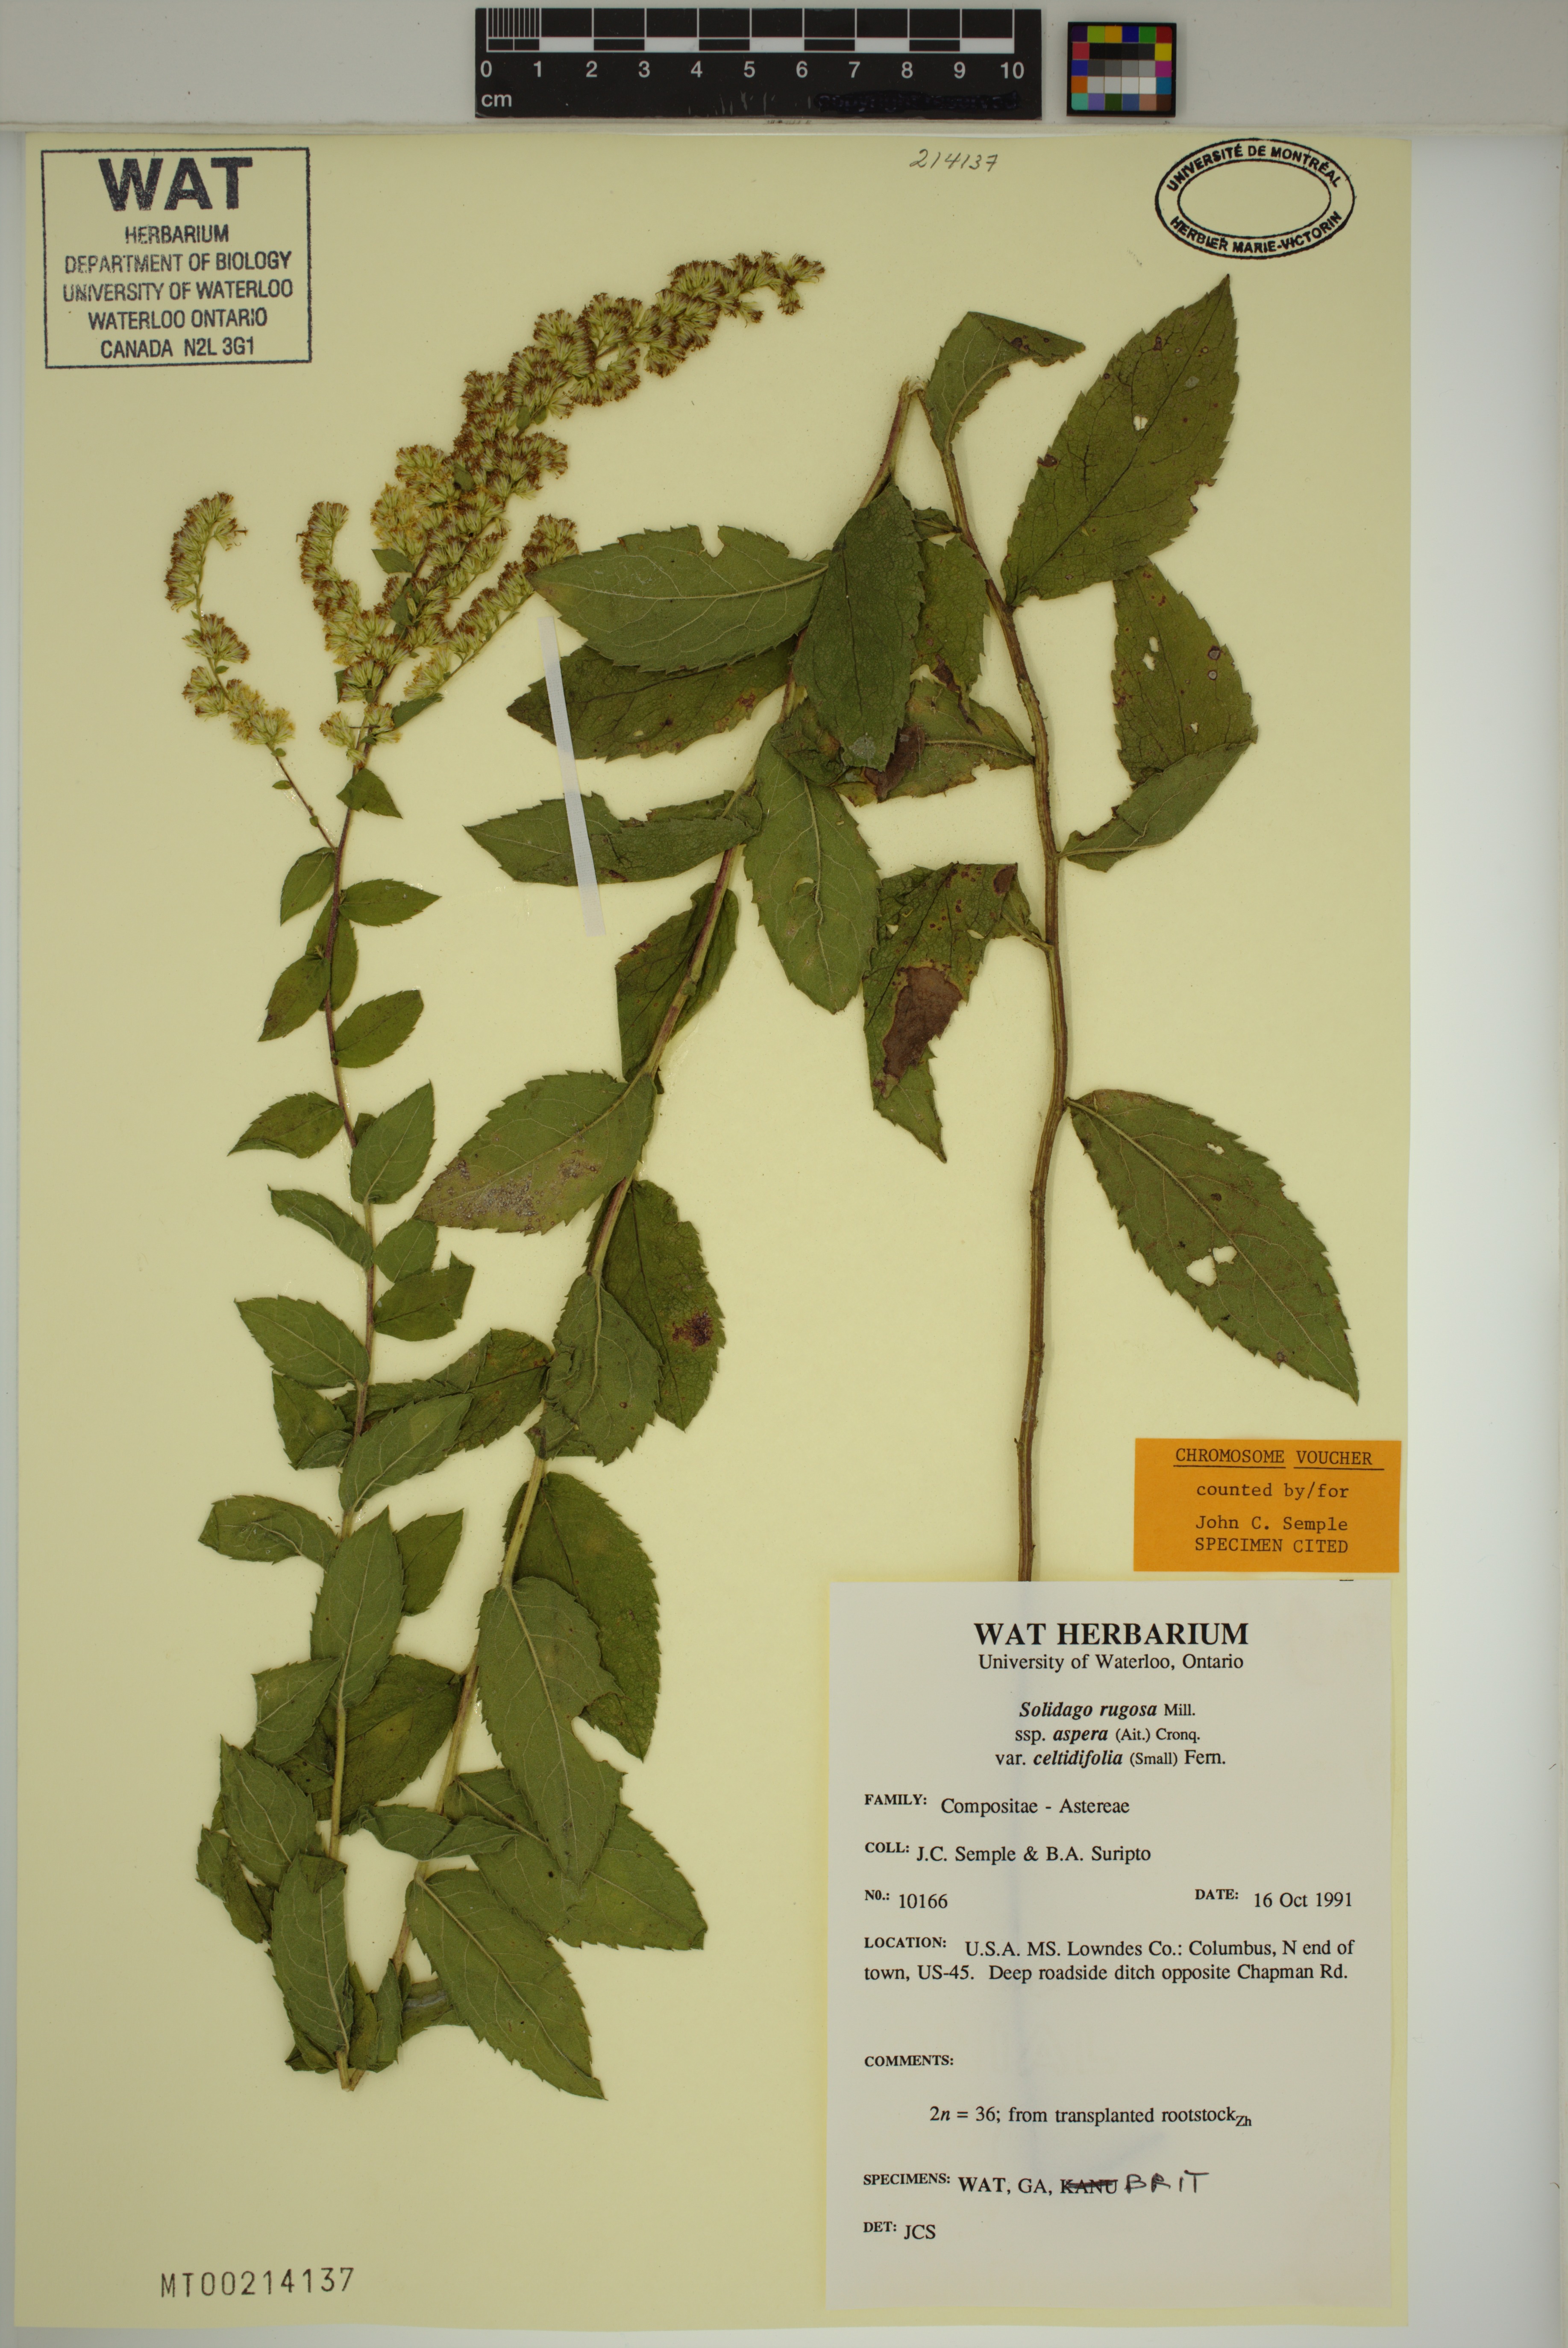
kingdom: Plantae
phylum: Tracheophyta
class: Magnoliopsida
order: Asterales
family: Asteraceae
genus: Solidago
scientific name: Solidago rugosa
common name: Rough-stemmed goldenrod
